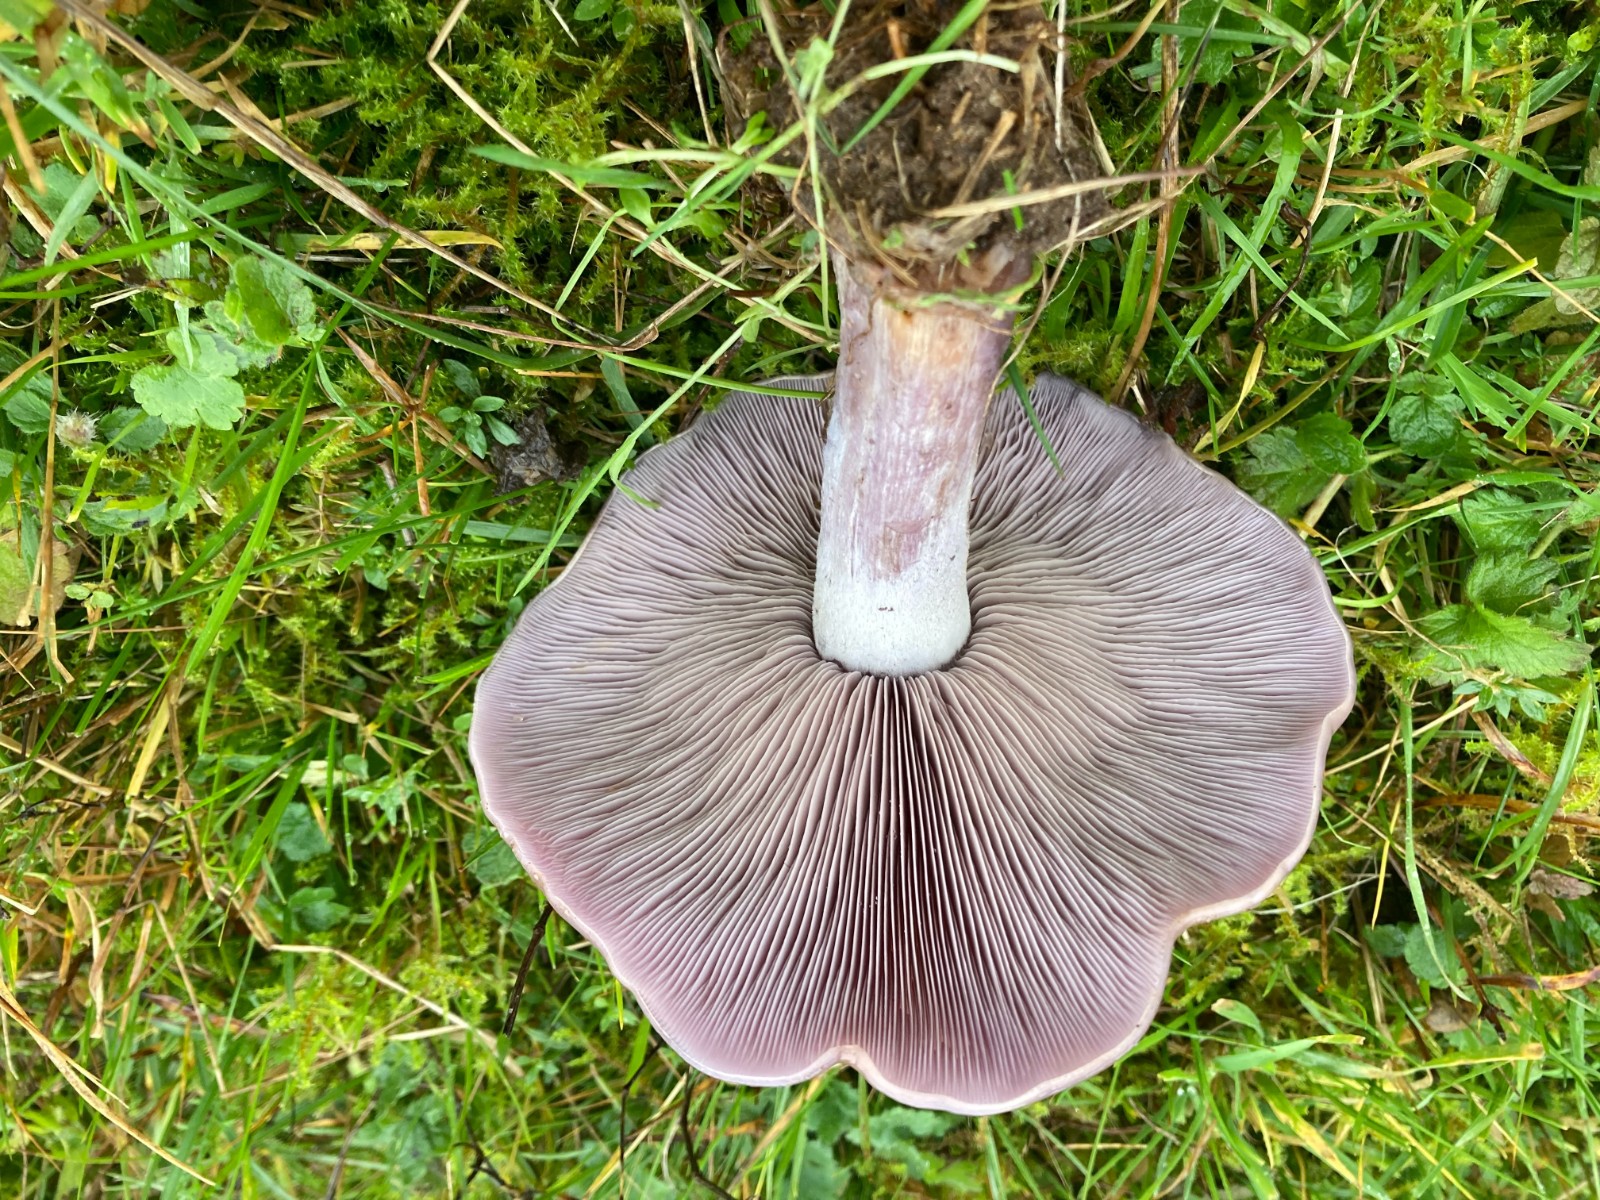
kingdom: Fungi
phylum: Basidiomycota
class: Agaricomycetes
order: Agaricales
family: Tricholomataceae
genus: Lepista
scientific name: Lepista
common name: hekseringshat
